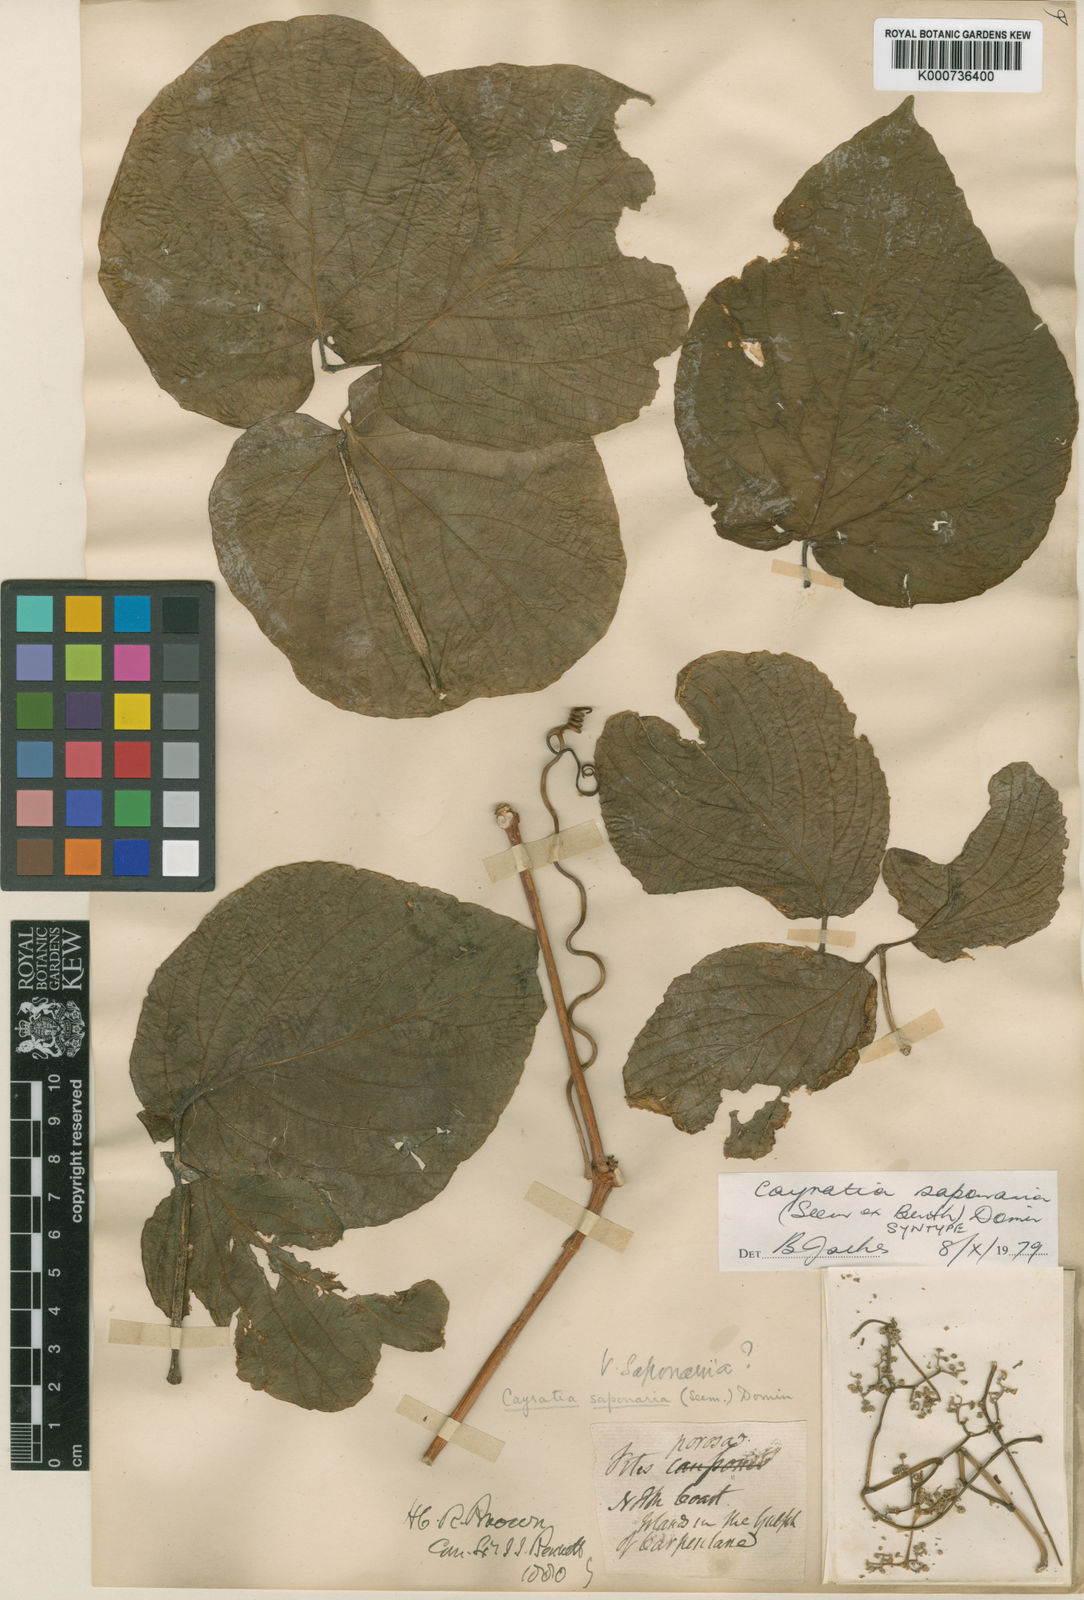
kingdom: Plantae
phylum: Tracheophyta
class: Magnoliopsida
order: Vitales
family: Vitaceae
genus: Cayratia
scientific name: Cayratia saponaria
